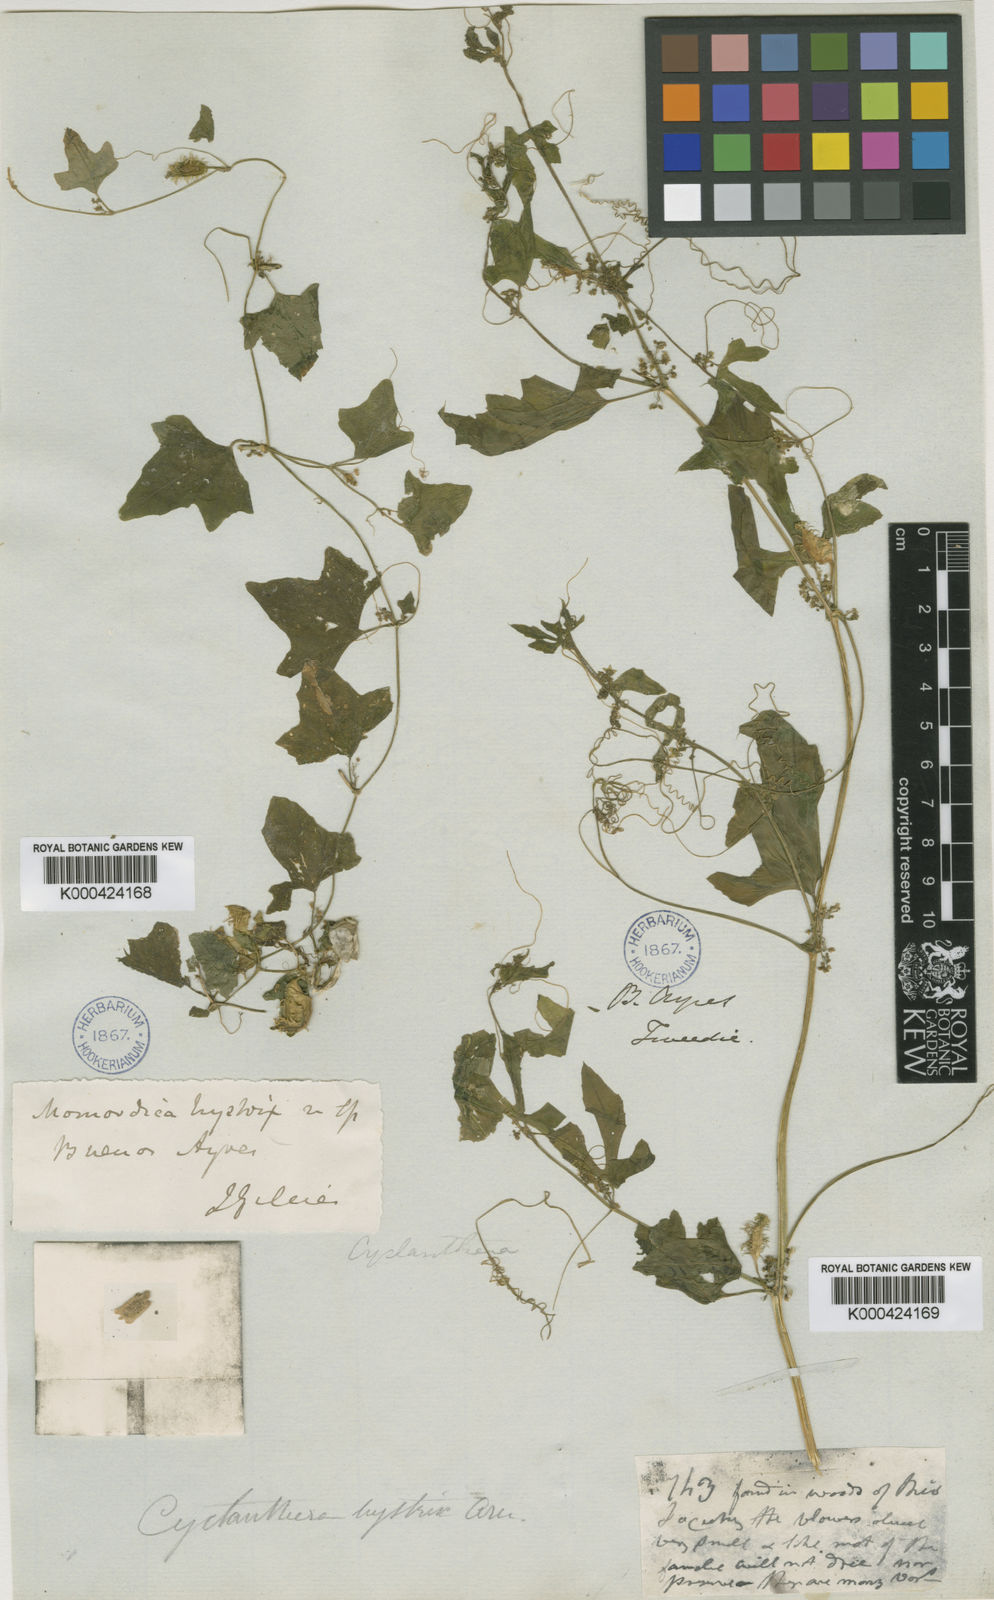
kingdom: Plantae
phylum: Tracheophyta
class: Magnoliopsida
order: Cucurbitales
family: Cucurbitaceae
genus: Cyclanthera
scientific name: Cyclanthera hystrix
